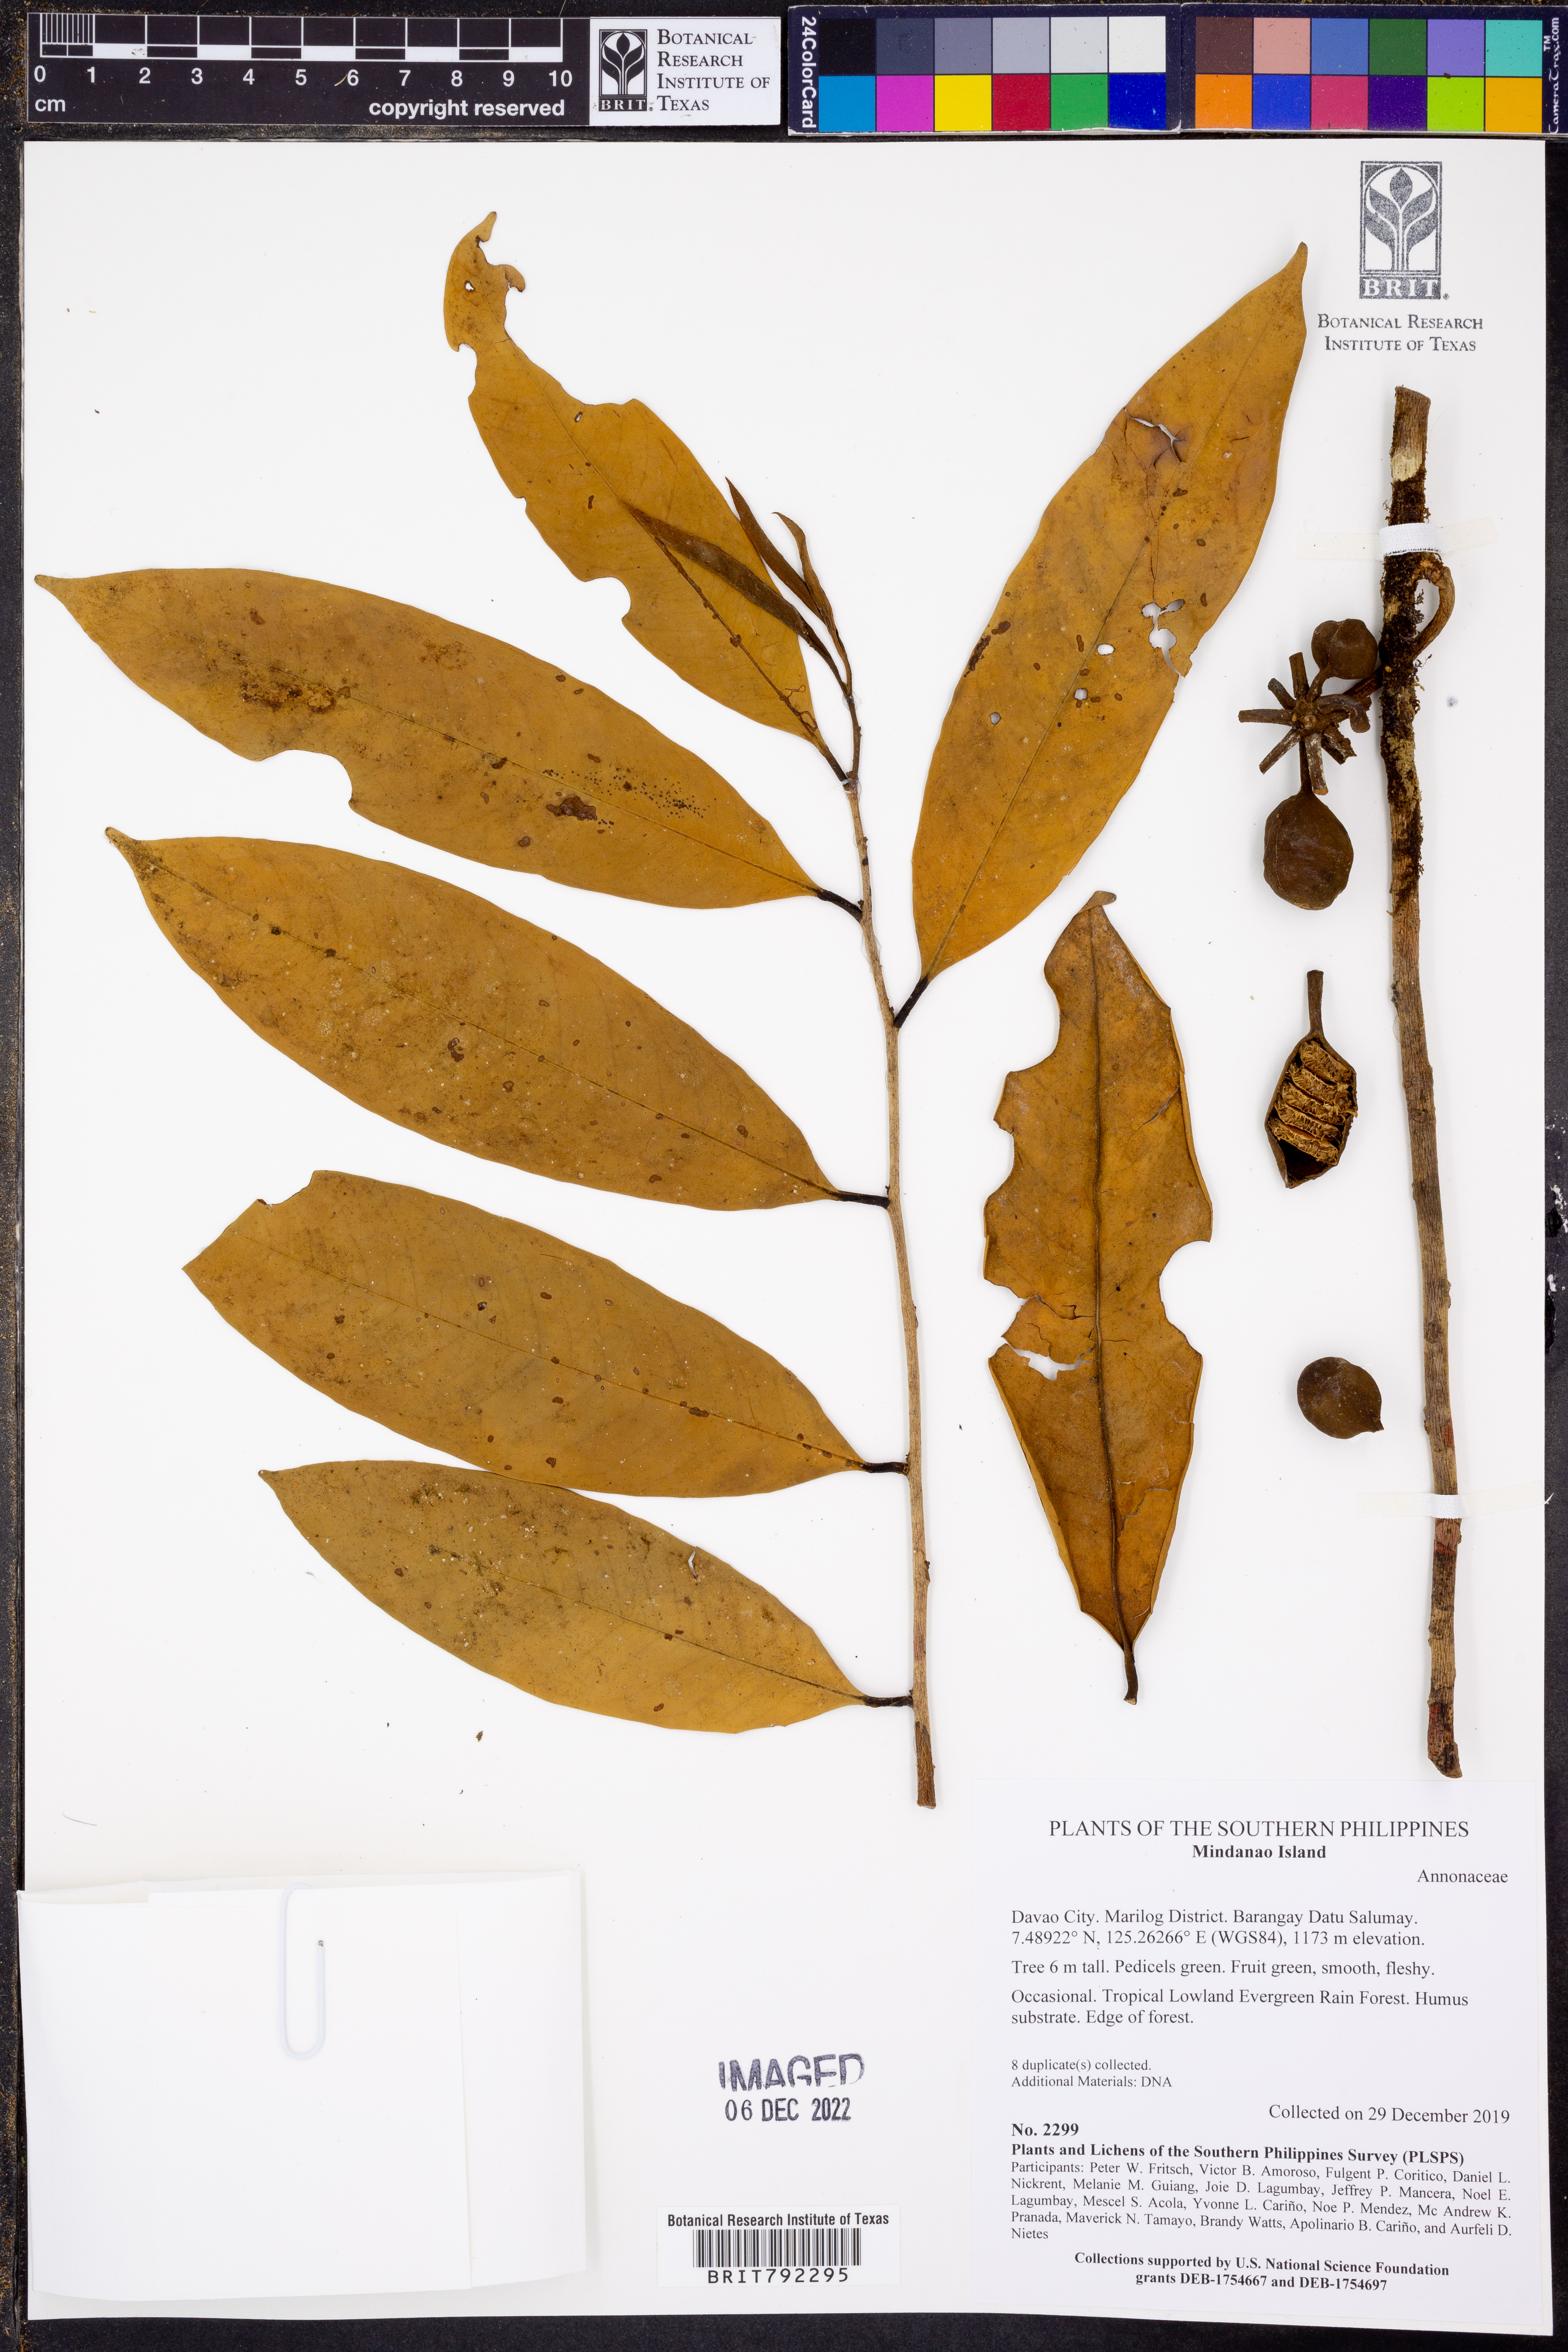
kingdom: Plantae
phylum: Tracheophyta
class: Magnoliopsida
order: Magnoliales
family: Annonaceae
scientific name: Annonaceae
